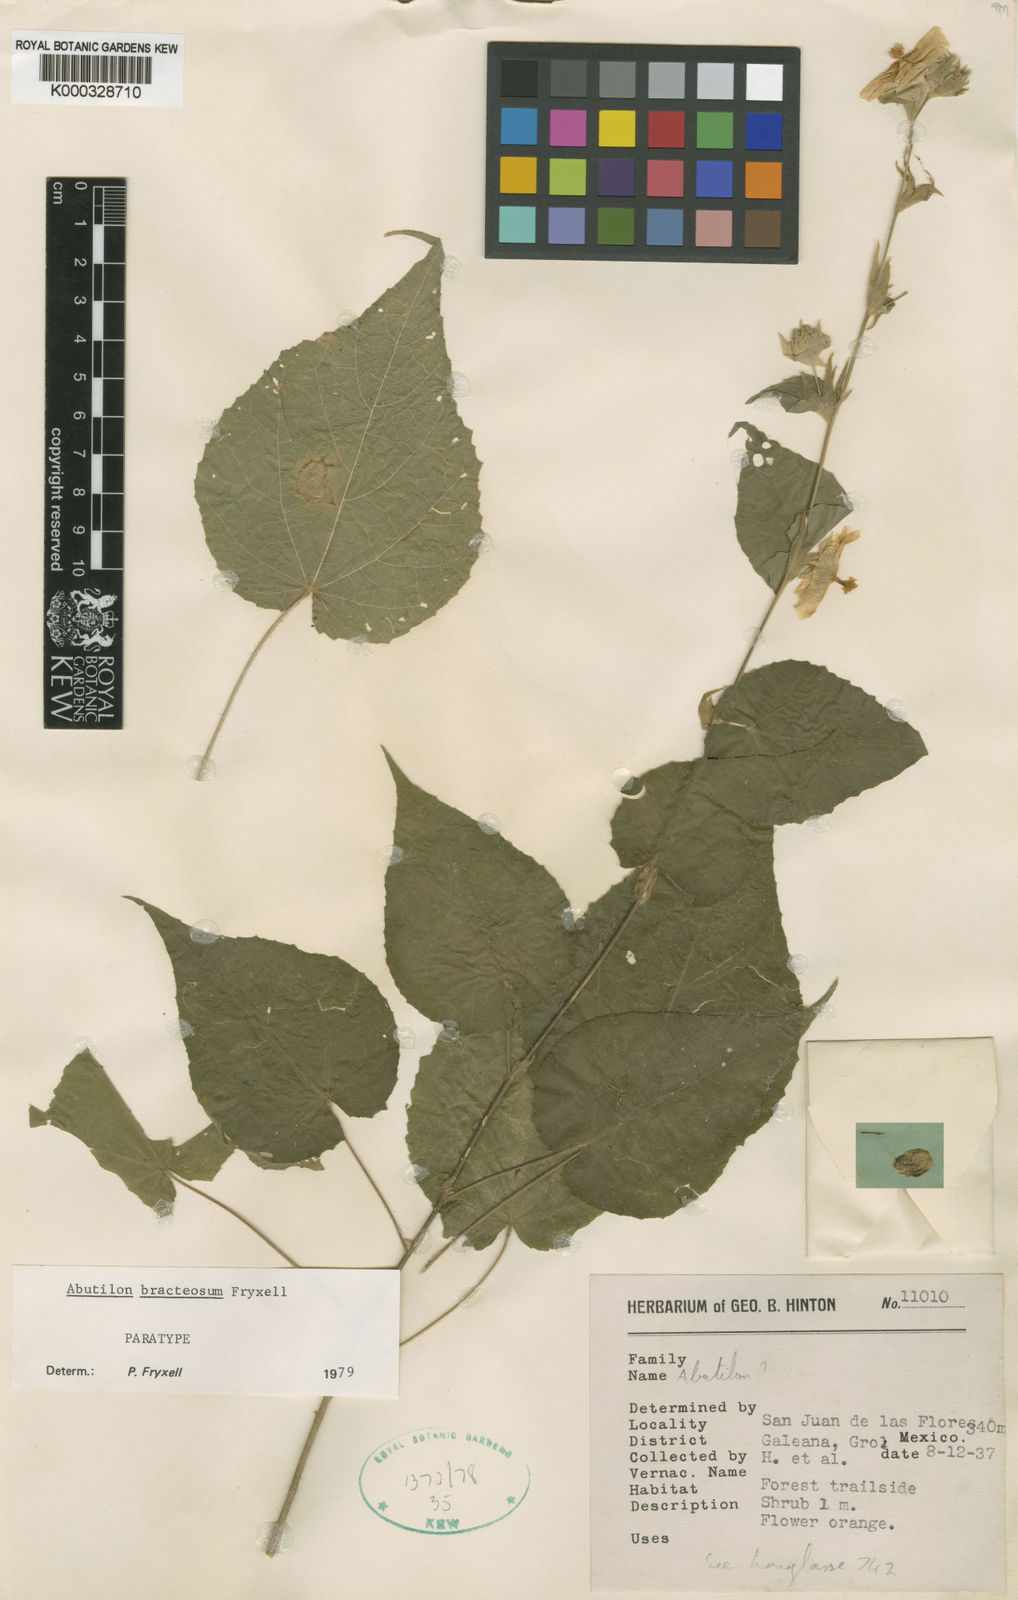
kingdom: Plantae
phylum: Tracheophyta
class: Magnoliopsida
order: Malvales
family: Malvaceae
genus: Abutilon
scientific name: Abutilon bracteosum
